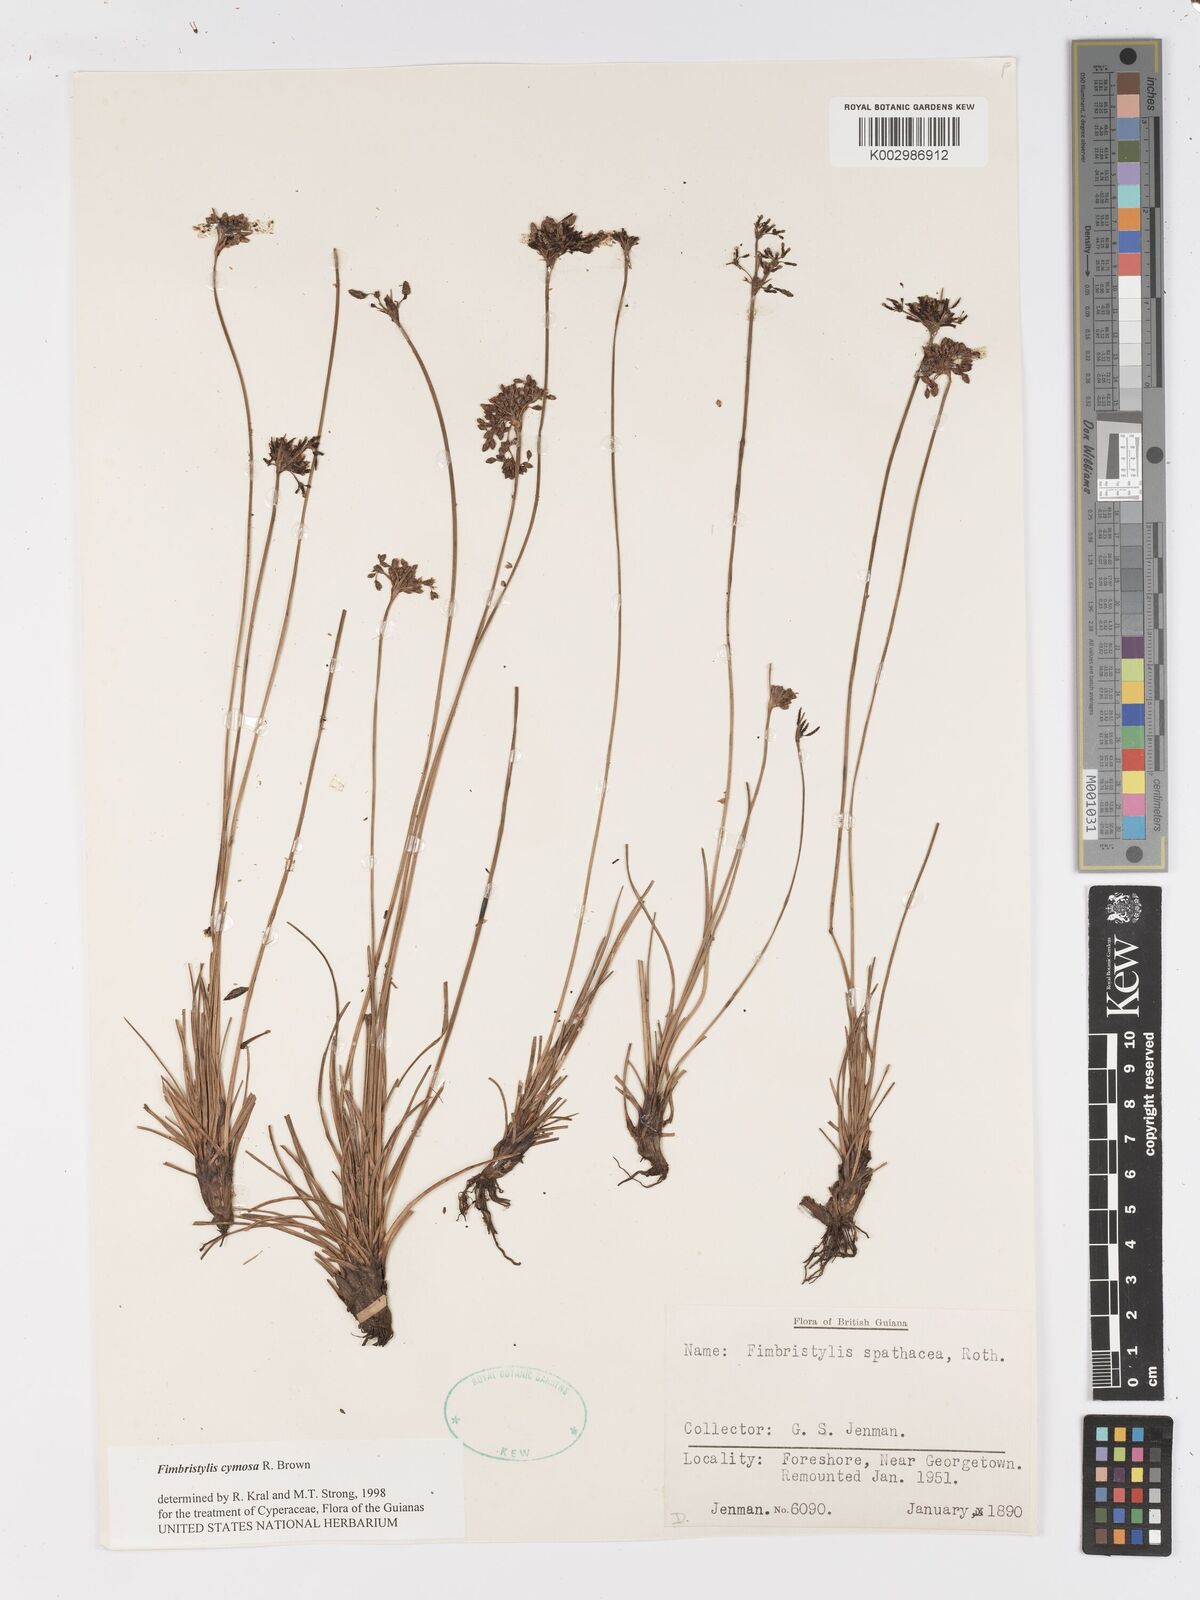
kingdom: Plantae
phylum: Tracheophyta
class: Liliopsida
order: Poales
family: Cyperaceae
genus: Fimbristylis
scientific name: Fimbristylis cymosa
